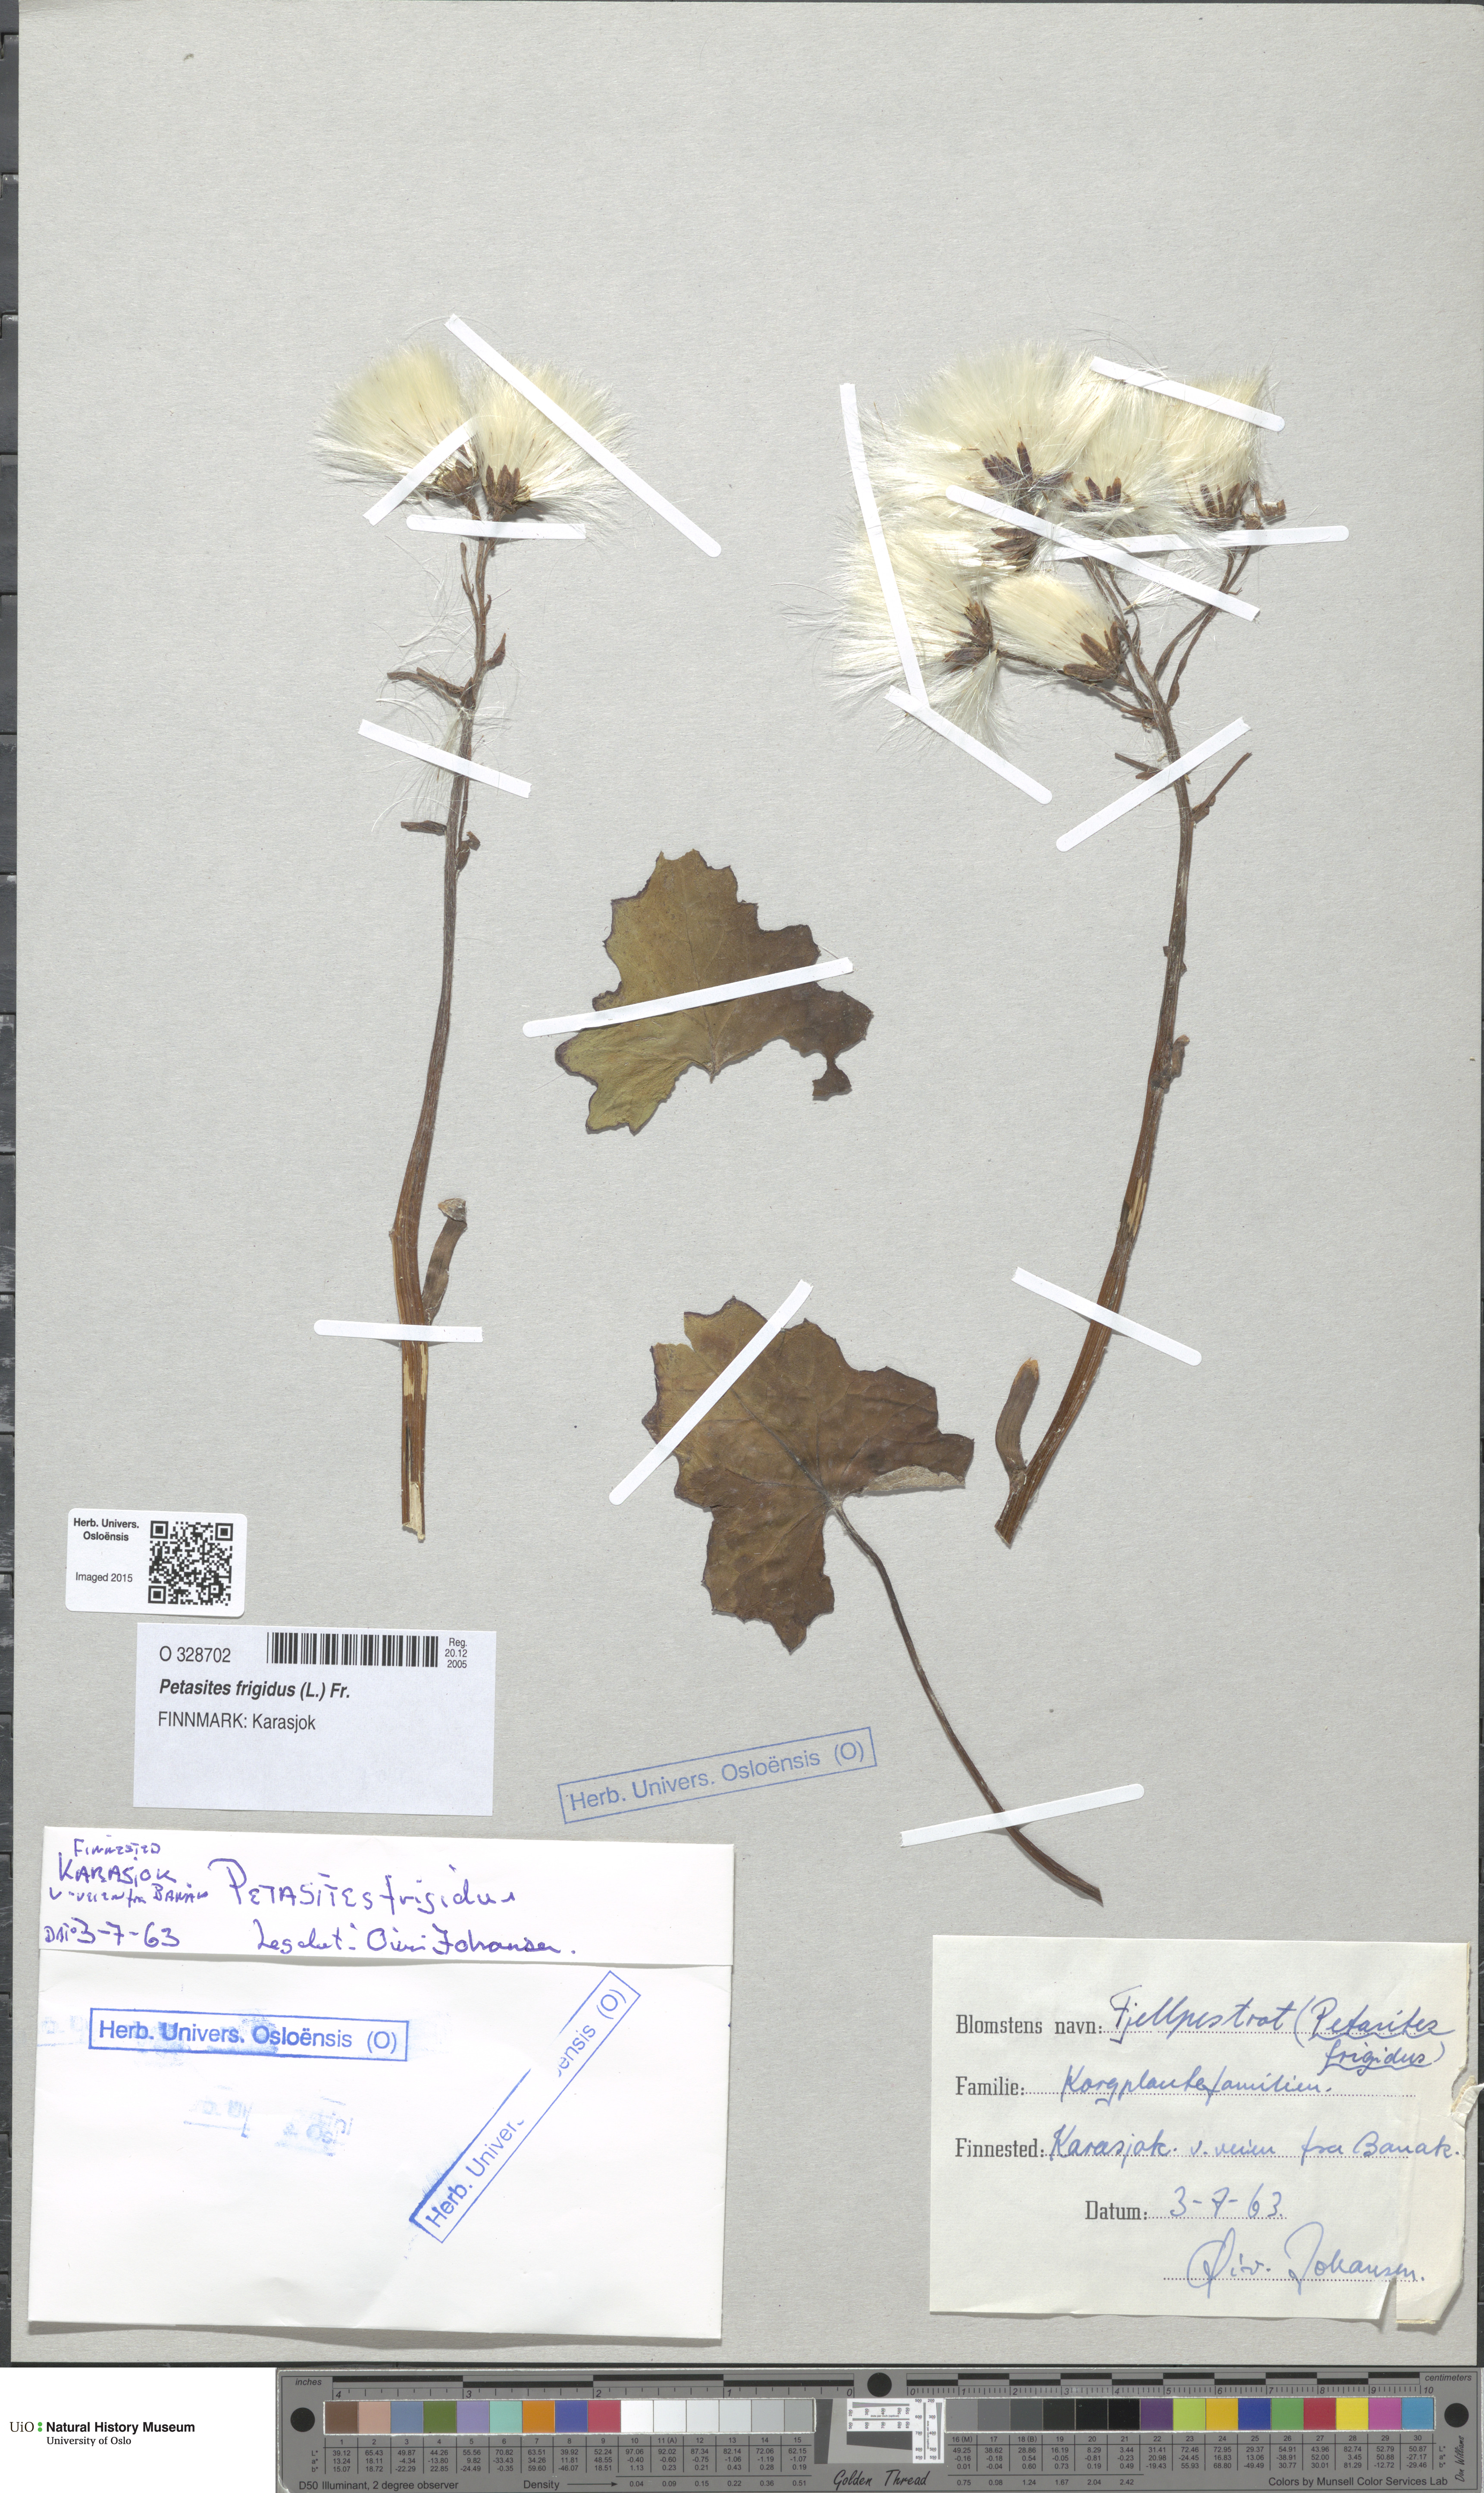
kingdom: Plantae
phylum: Tracheophyta
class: Magnoliopsida
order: Asterales
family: Asteraceae
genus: Petasites
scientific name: Petasites frigidus
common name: Arctic butterbur
